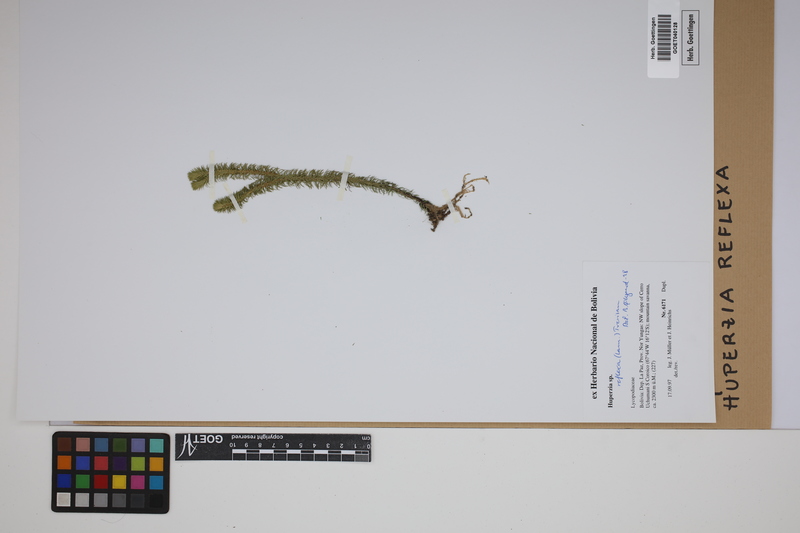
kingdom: Plantae
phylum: Tracheophyta
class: Lycopodiopsida
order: Lycopodiales
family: Lycopodiaceae
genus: Phlegmariurus
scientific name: Phlegmariurus reflexus
